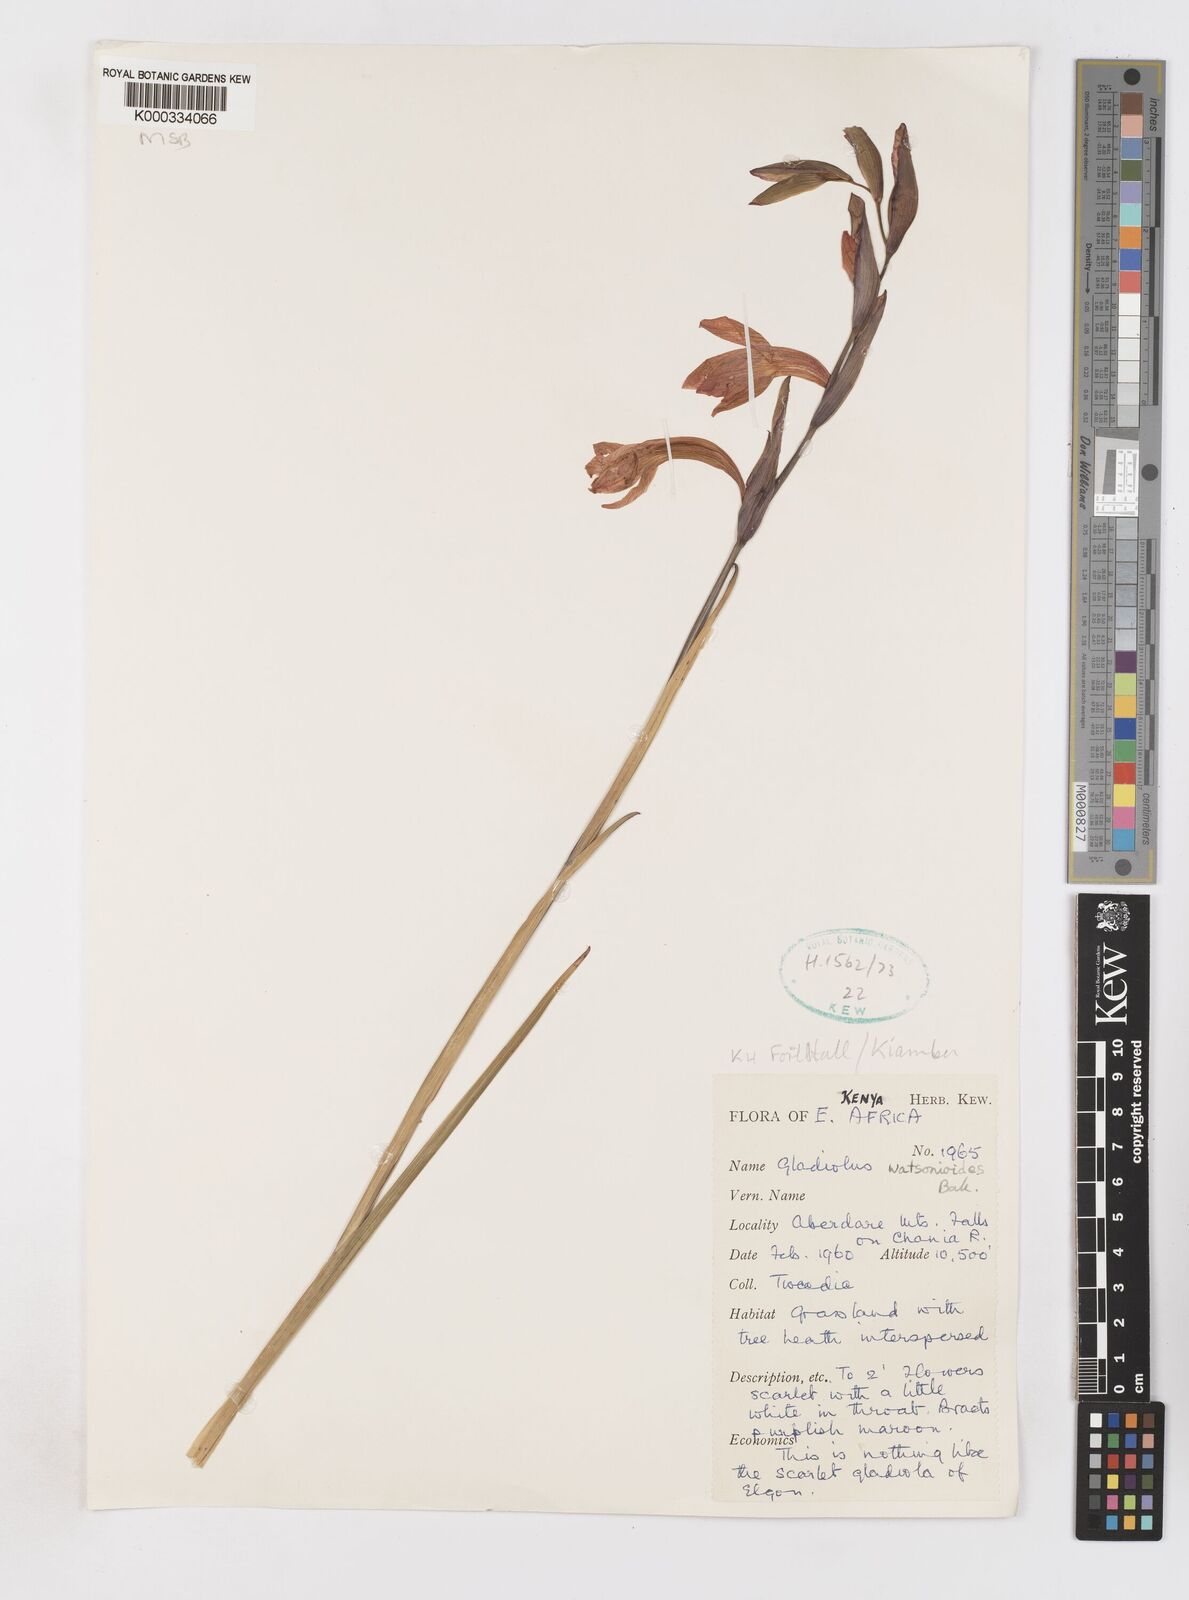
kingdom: Plantae
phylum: Tracheophyta
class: Liliopsida
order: Asparagales
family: Iridaceae
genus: Gladiolus
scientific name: Gladiolus watsonioides
